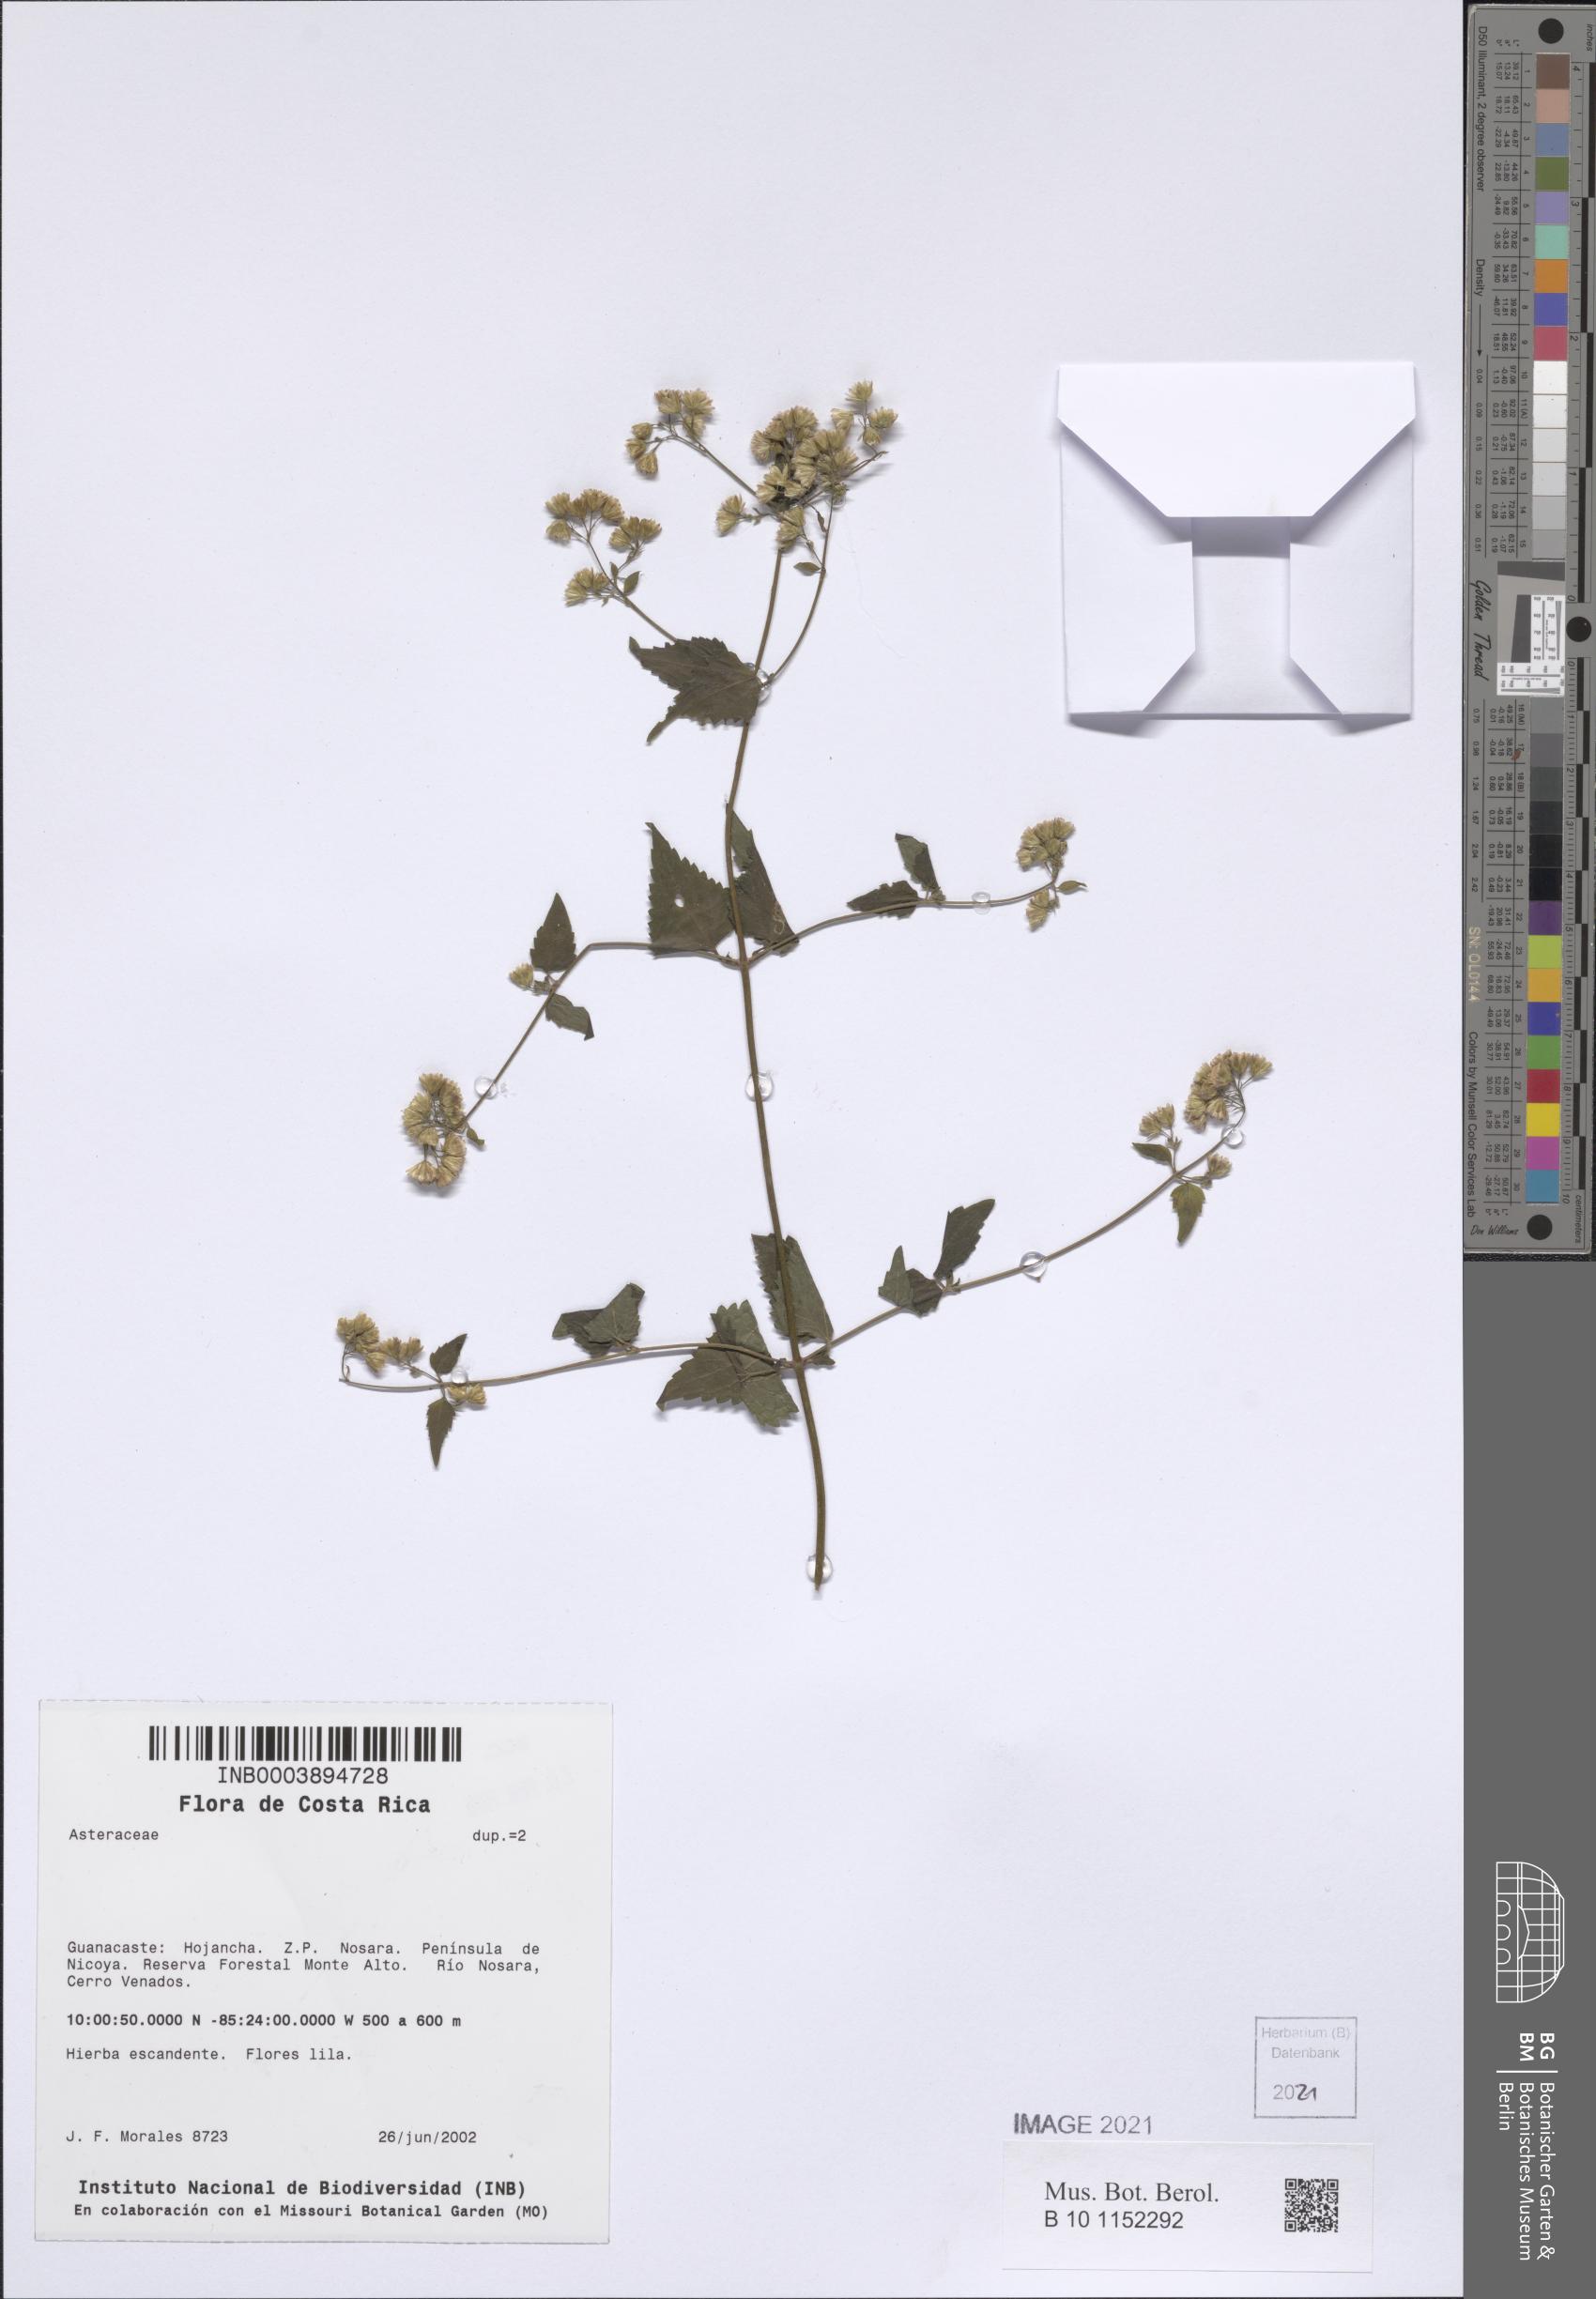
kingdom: Plantae
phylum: Tracheophyta
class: Magnoliopsida
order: Asterales
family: Asteraceae
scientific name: Asteraceae
